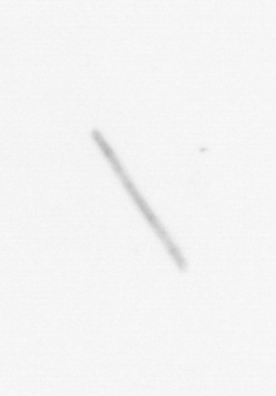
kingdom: Chromista
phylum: Ochrophyta
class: Bacillariophyceae
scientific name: Bacillariophyceae
